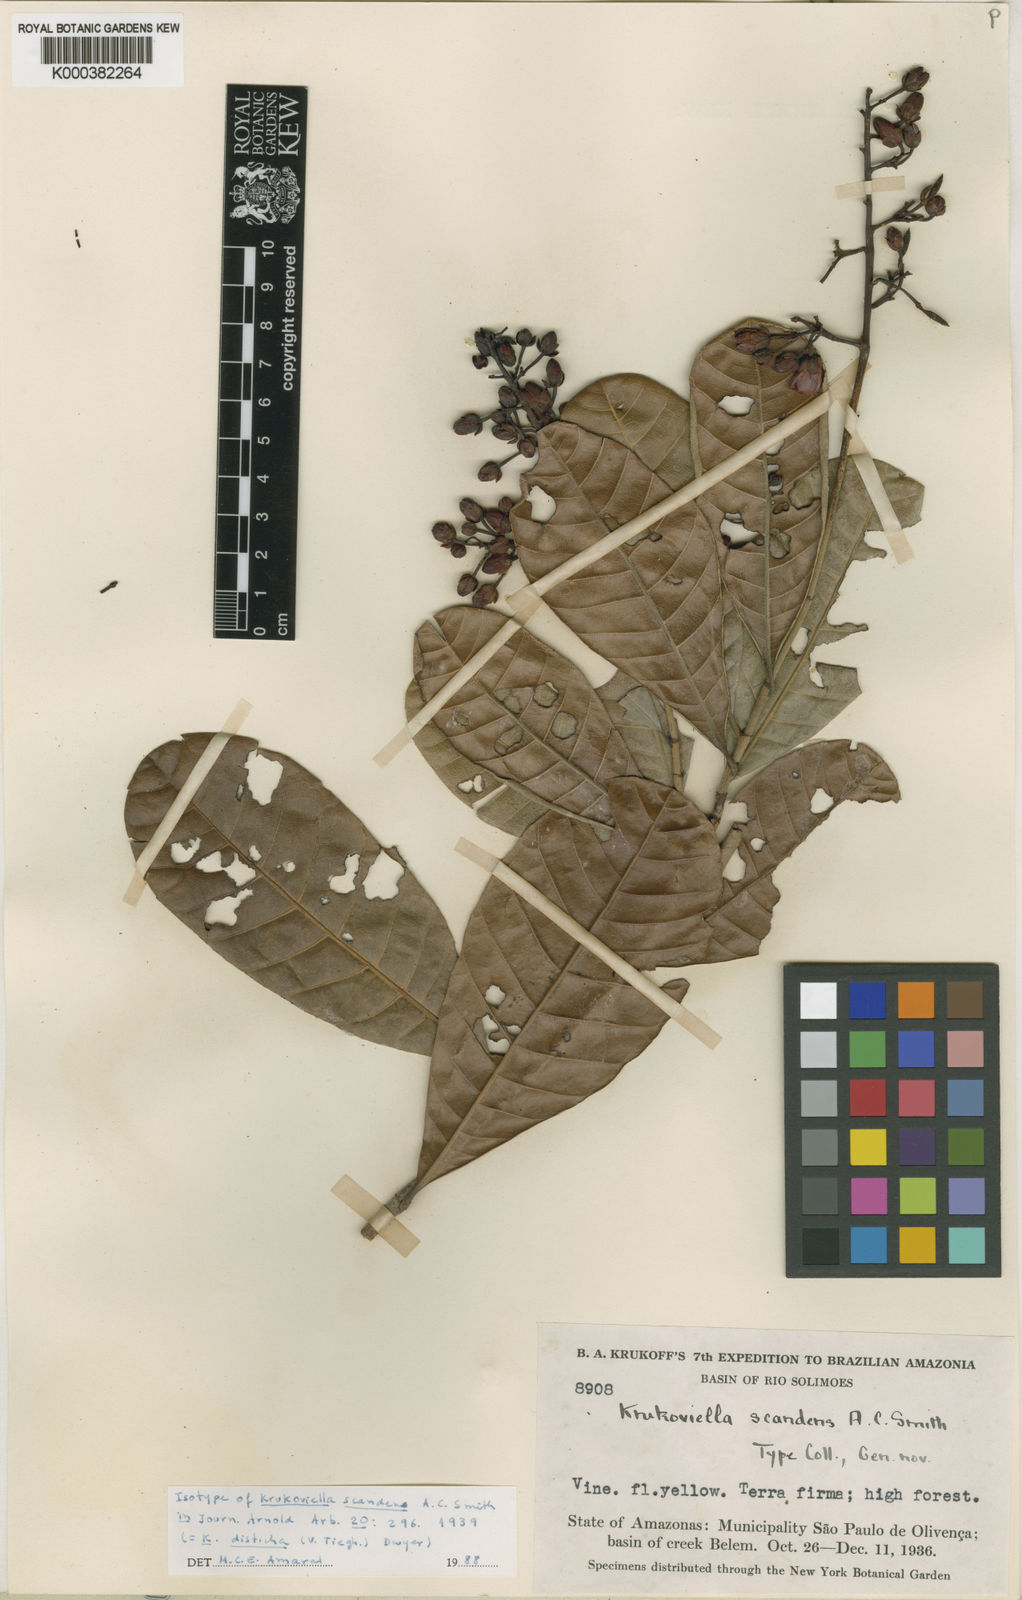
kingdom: Plantae
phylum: Tracheophyta
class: Magnoliopsida
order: Malpighiales
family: Ochnaceae
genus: Krukoviella
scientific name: Krukoviella disticha
